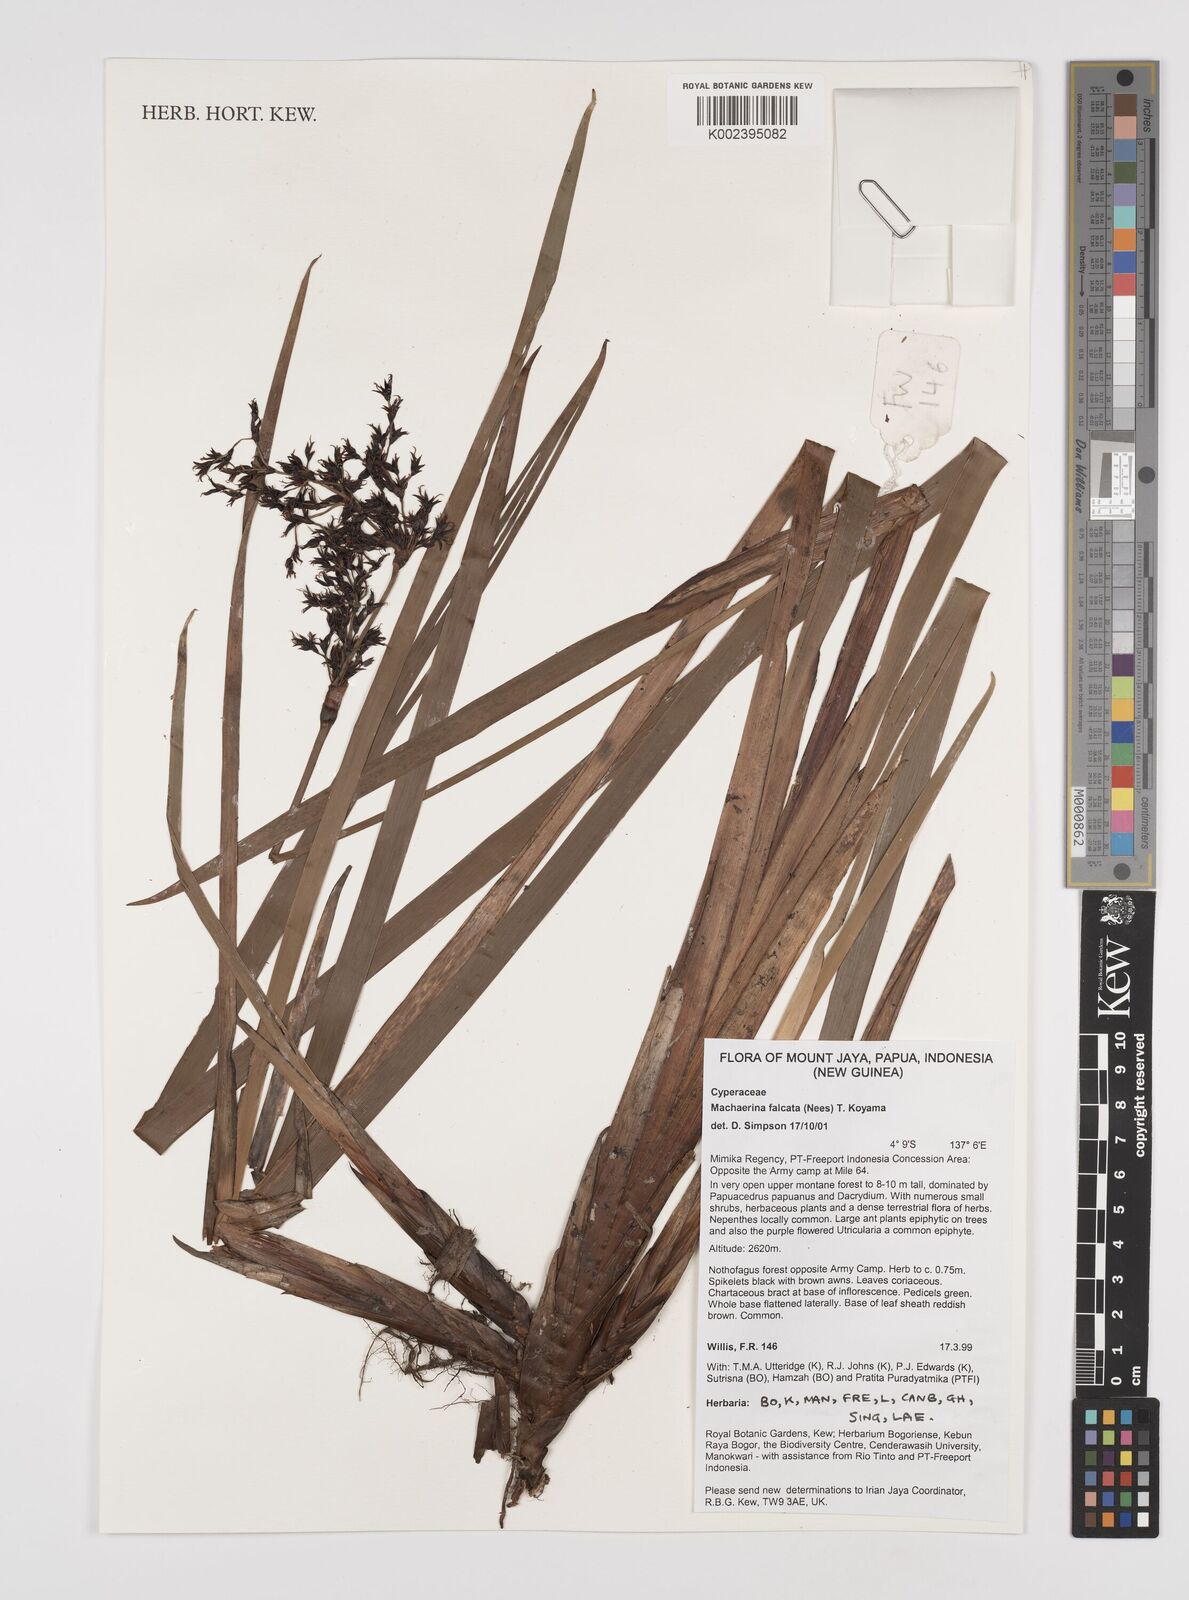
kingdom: Plantae
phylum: Tracheophyta
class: Liliopsida
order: Poales
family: Cyperaceae
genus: Machaerina
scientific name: Machaerina falcata
